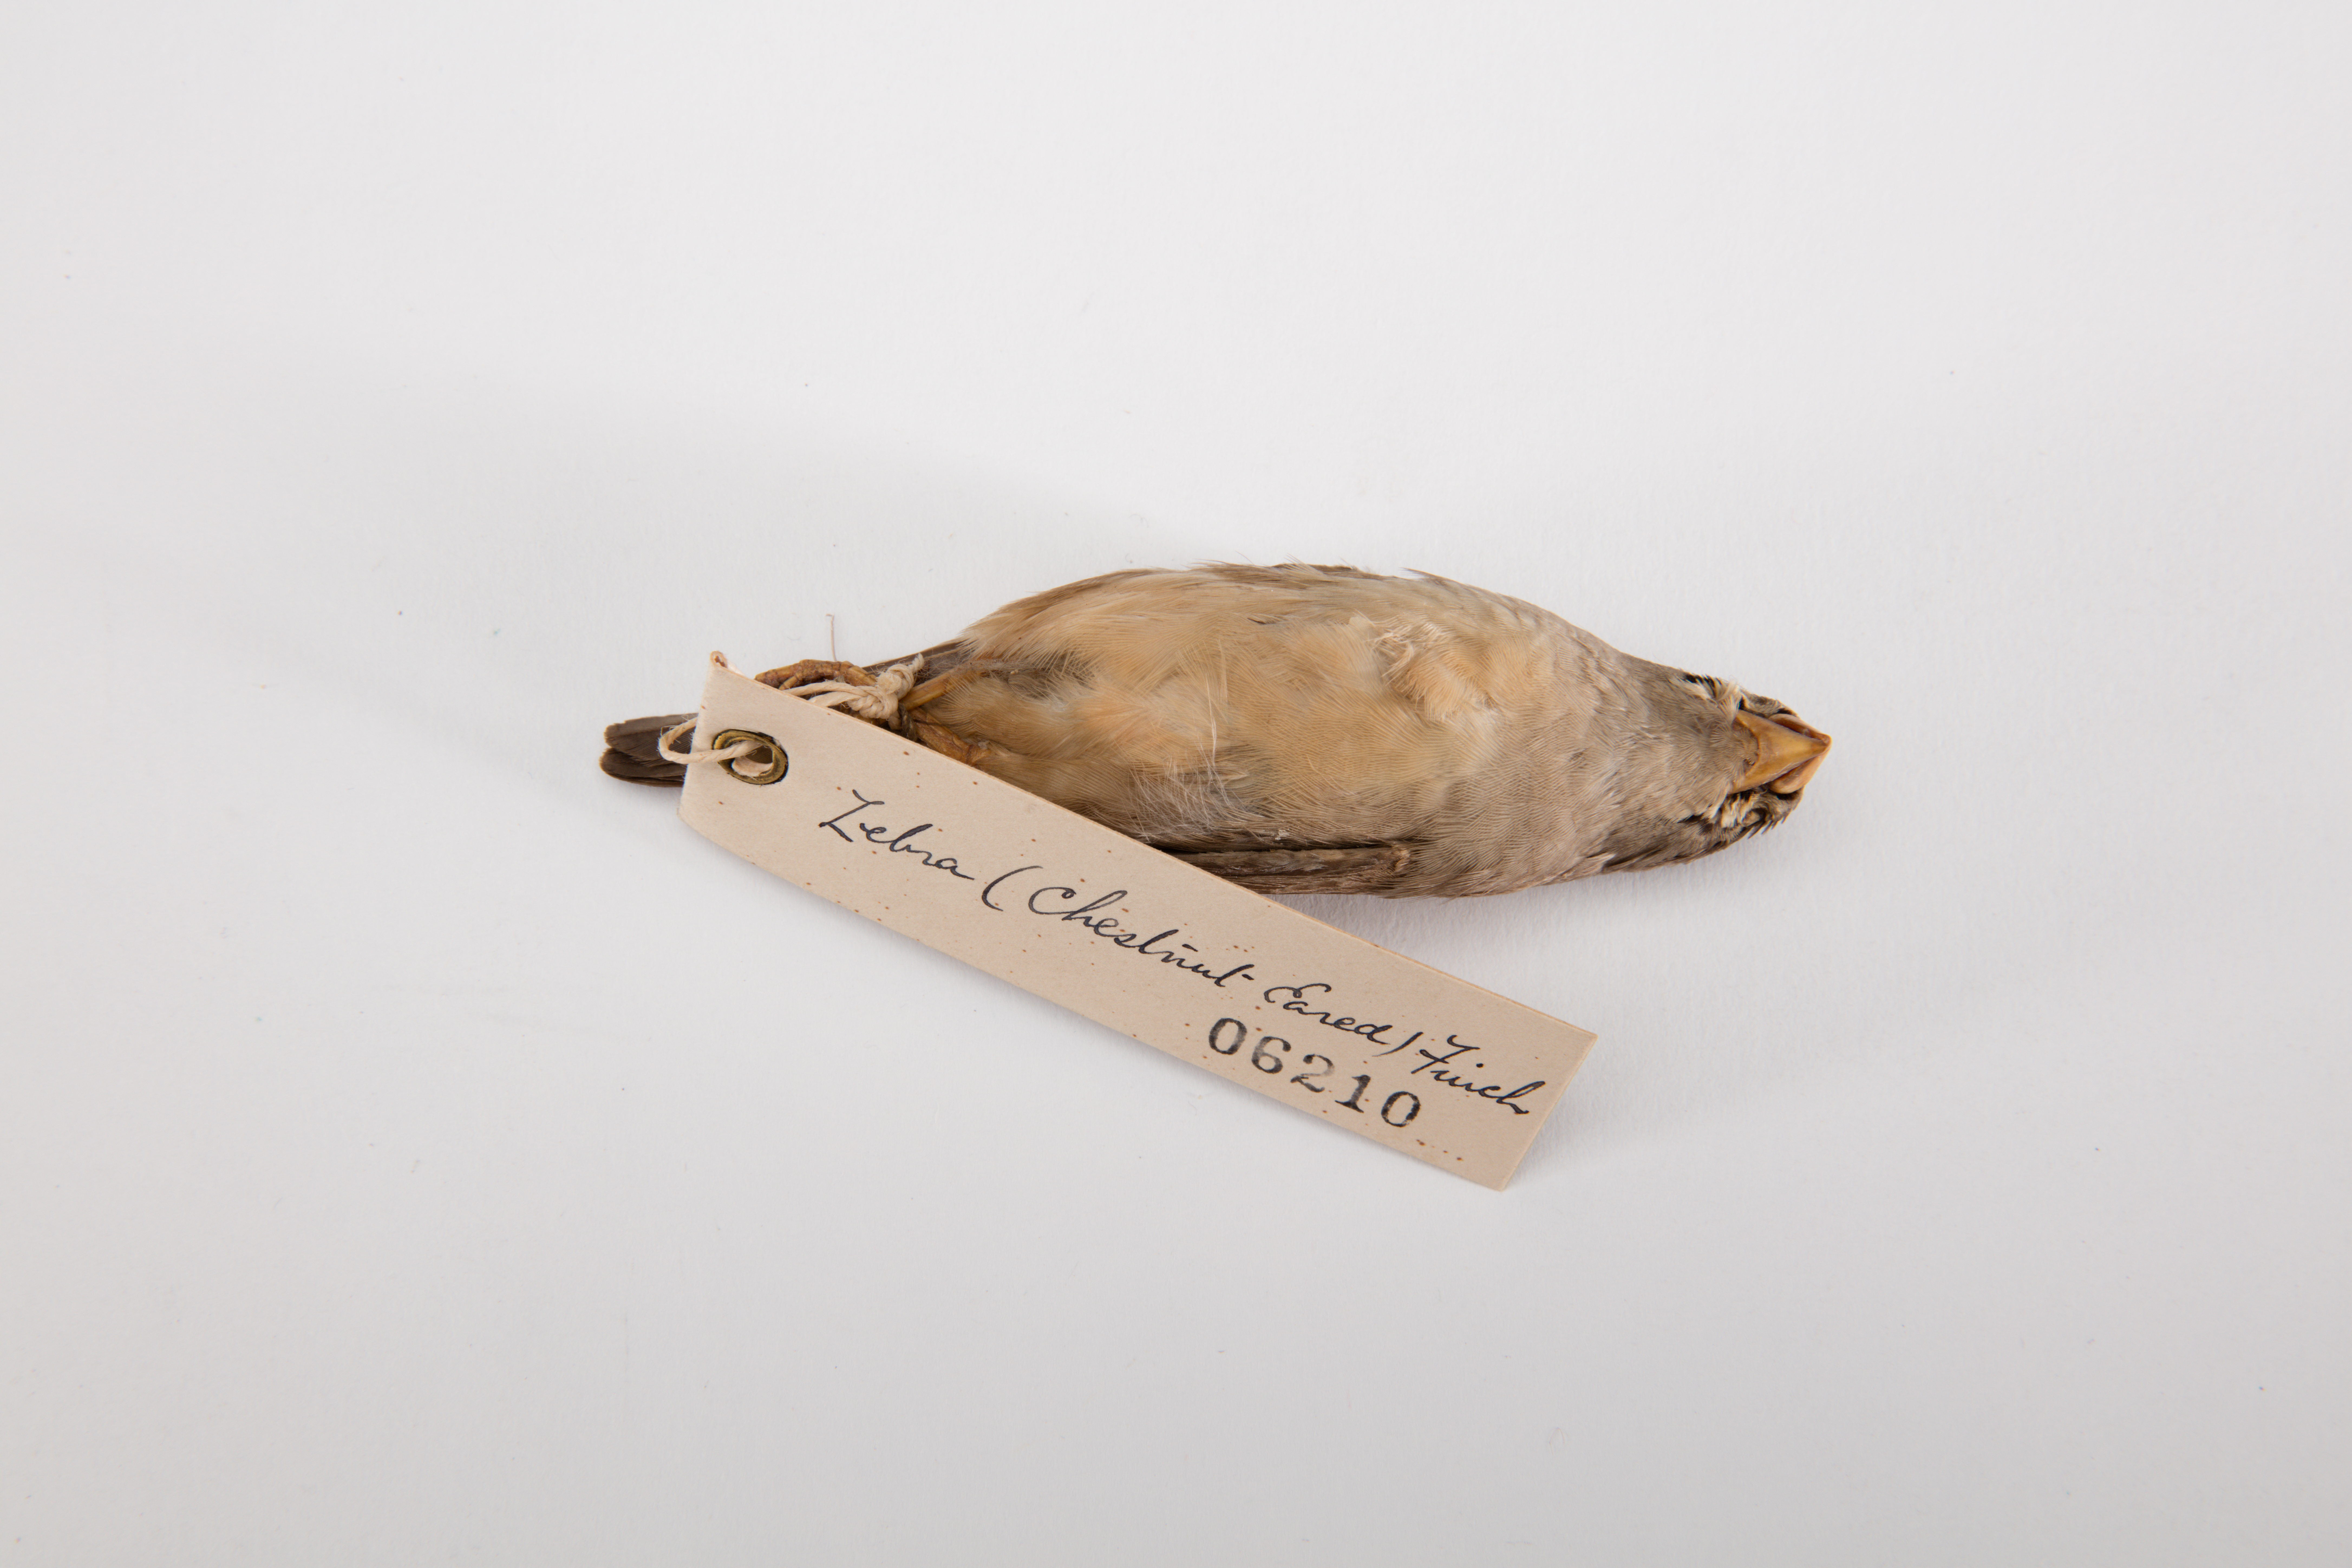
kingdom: Animalia
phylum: Chordata
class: Aves
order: Passeriformes
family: Estrildidae
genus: Taeniopygia
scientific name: Taeniopygia guttata
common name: Zebra finch
